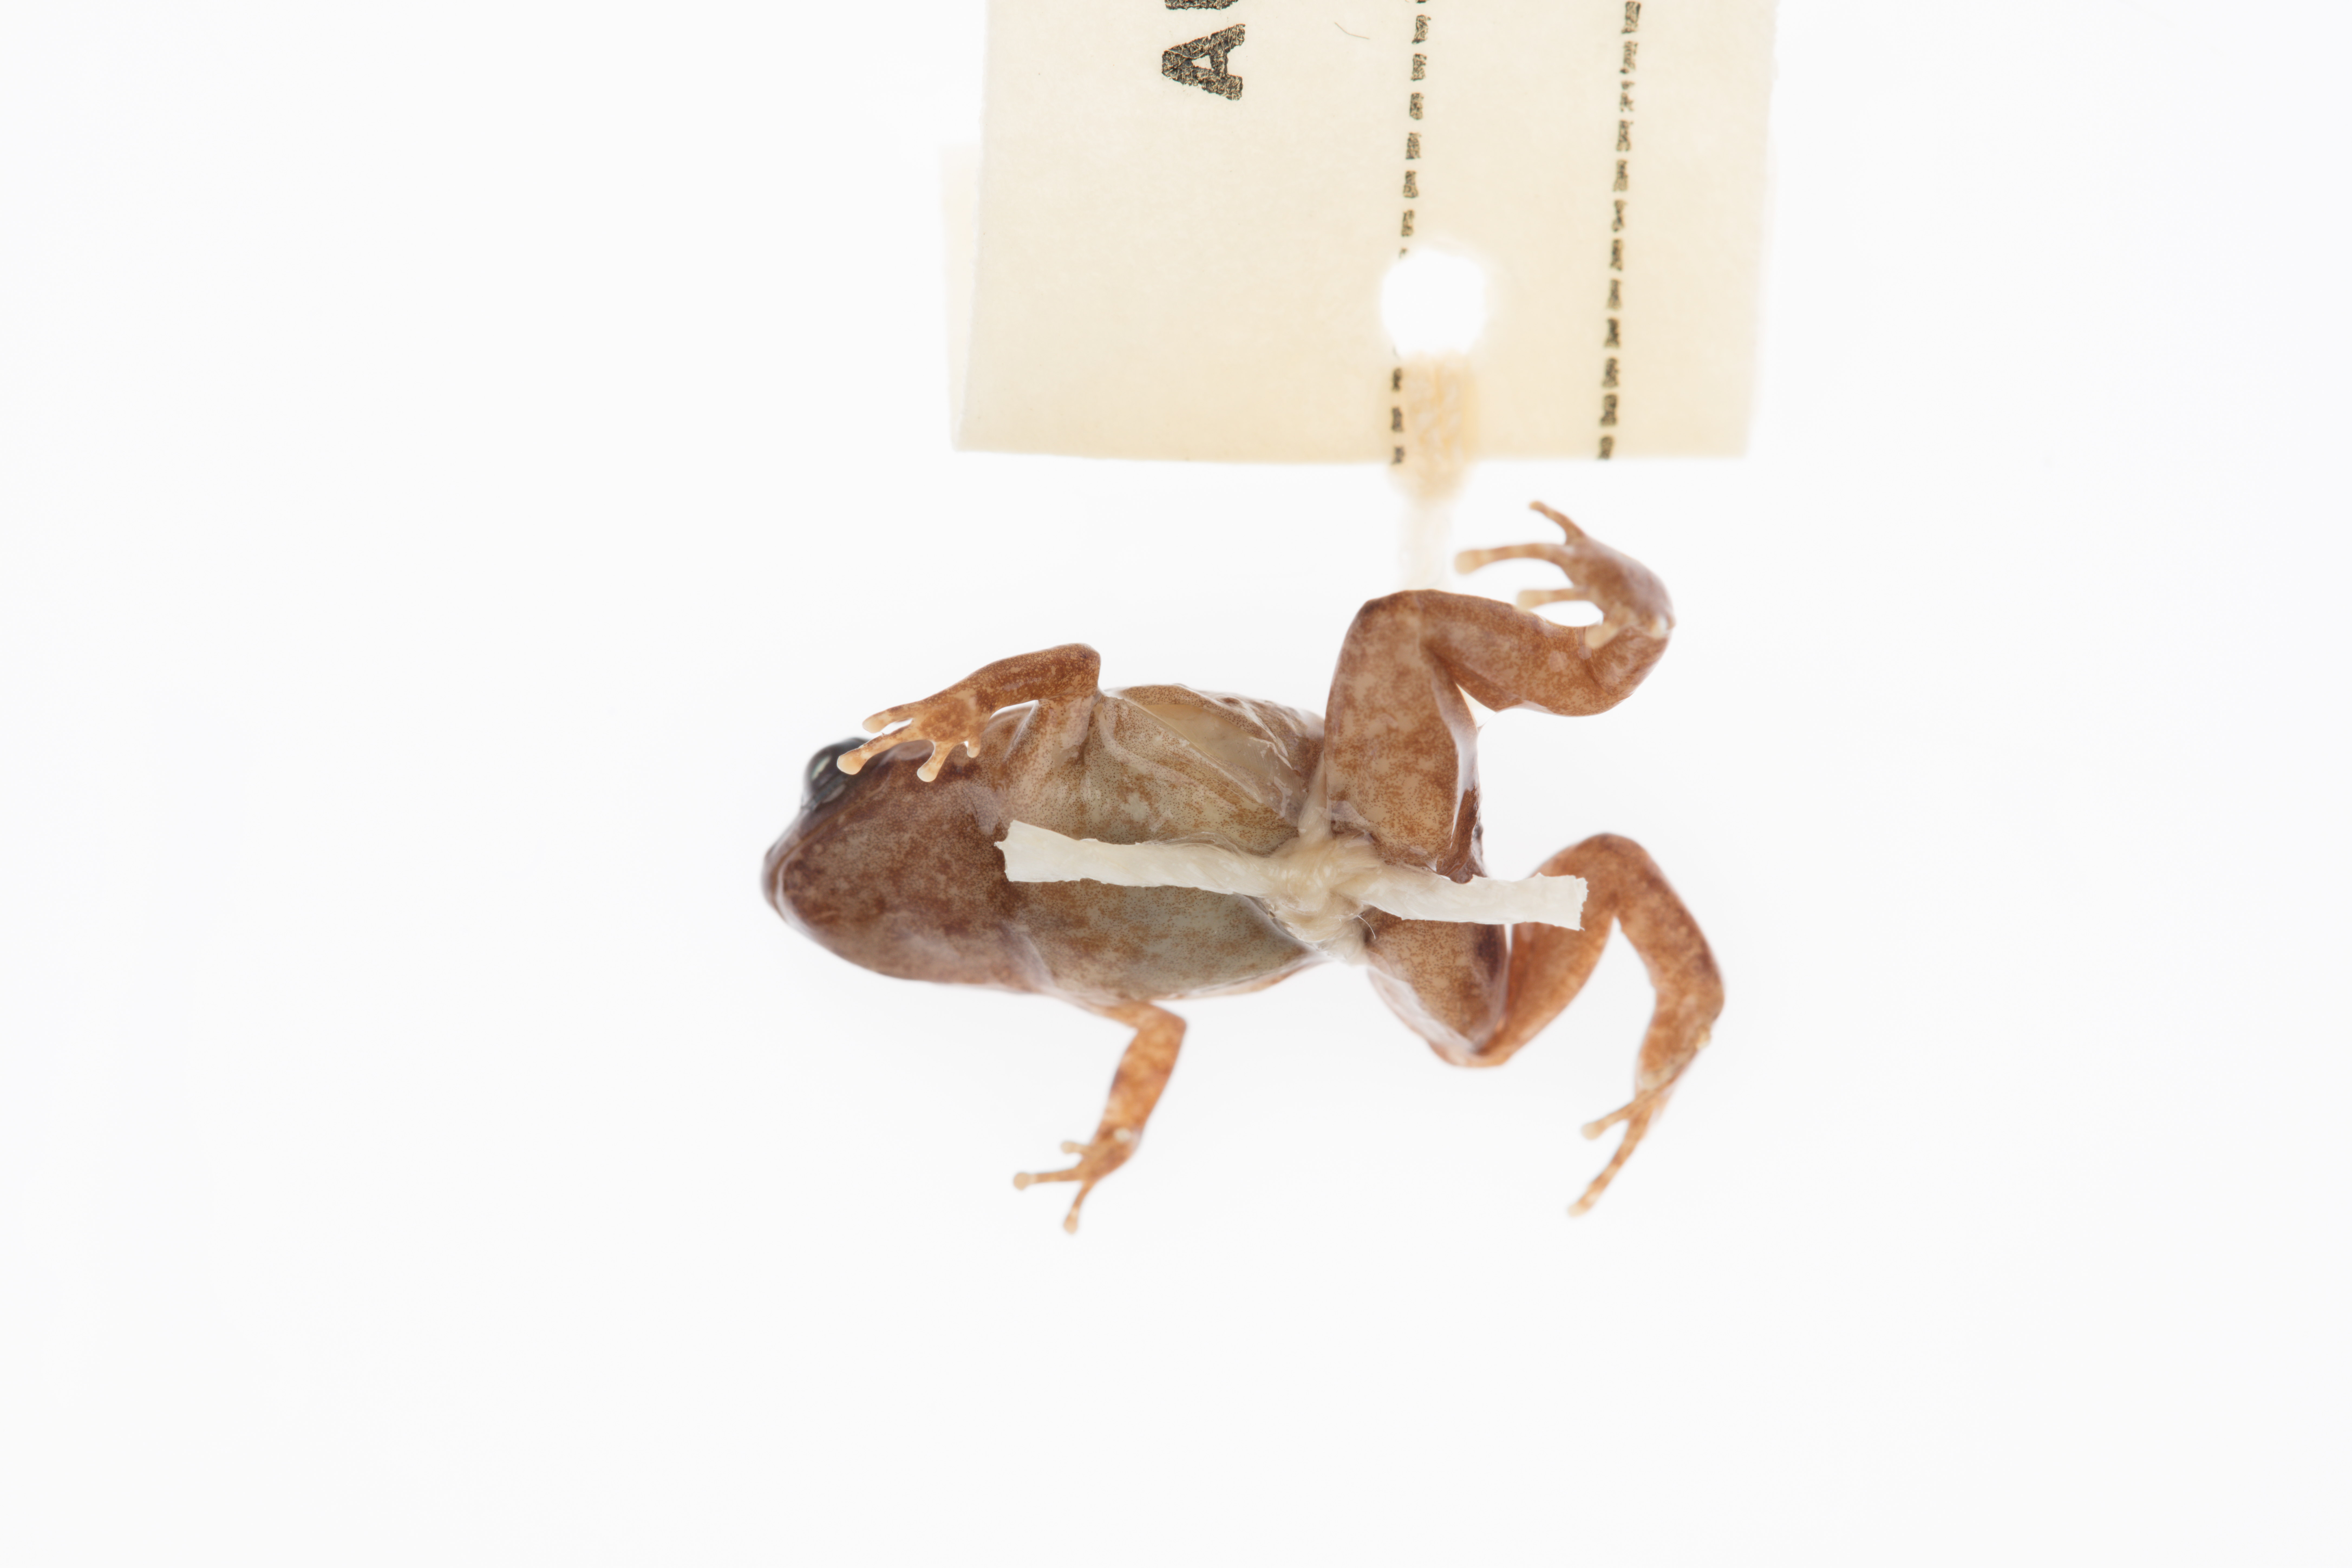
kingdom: Animalia
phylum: Chordata
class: Amphibia
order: Anura
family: Microhylidae
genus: Cophixalus
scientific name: Cophixalus hosmeri
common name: Clicking rainforest frog
